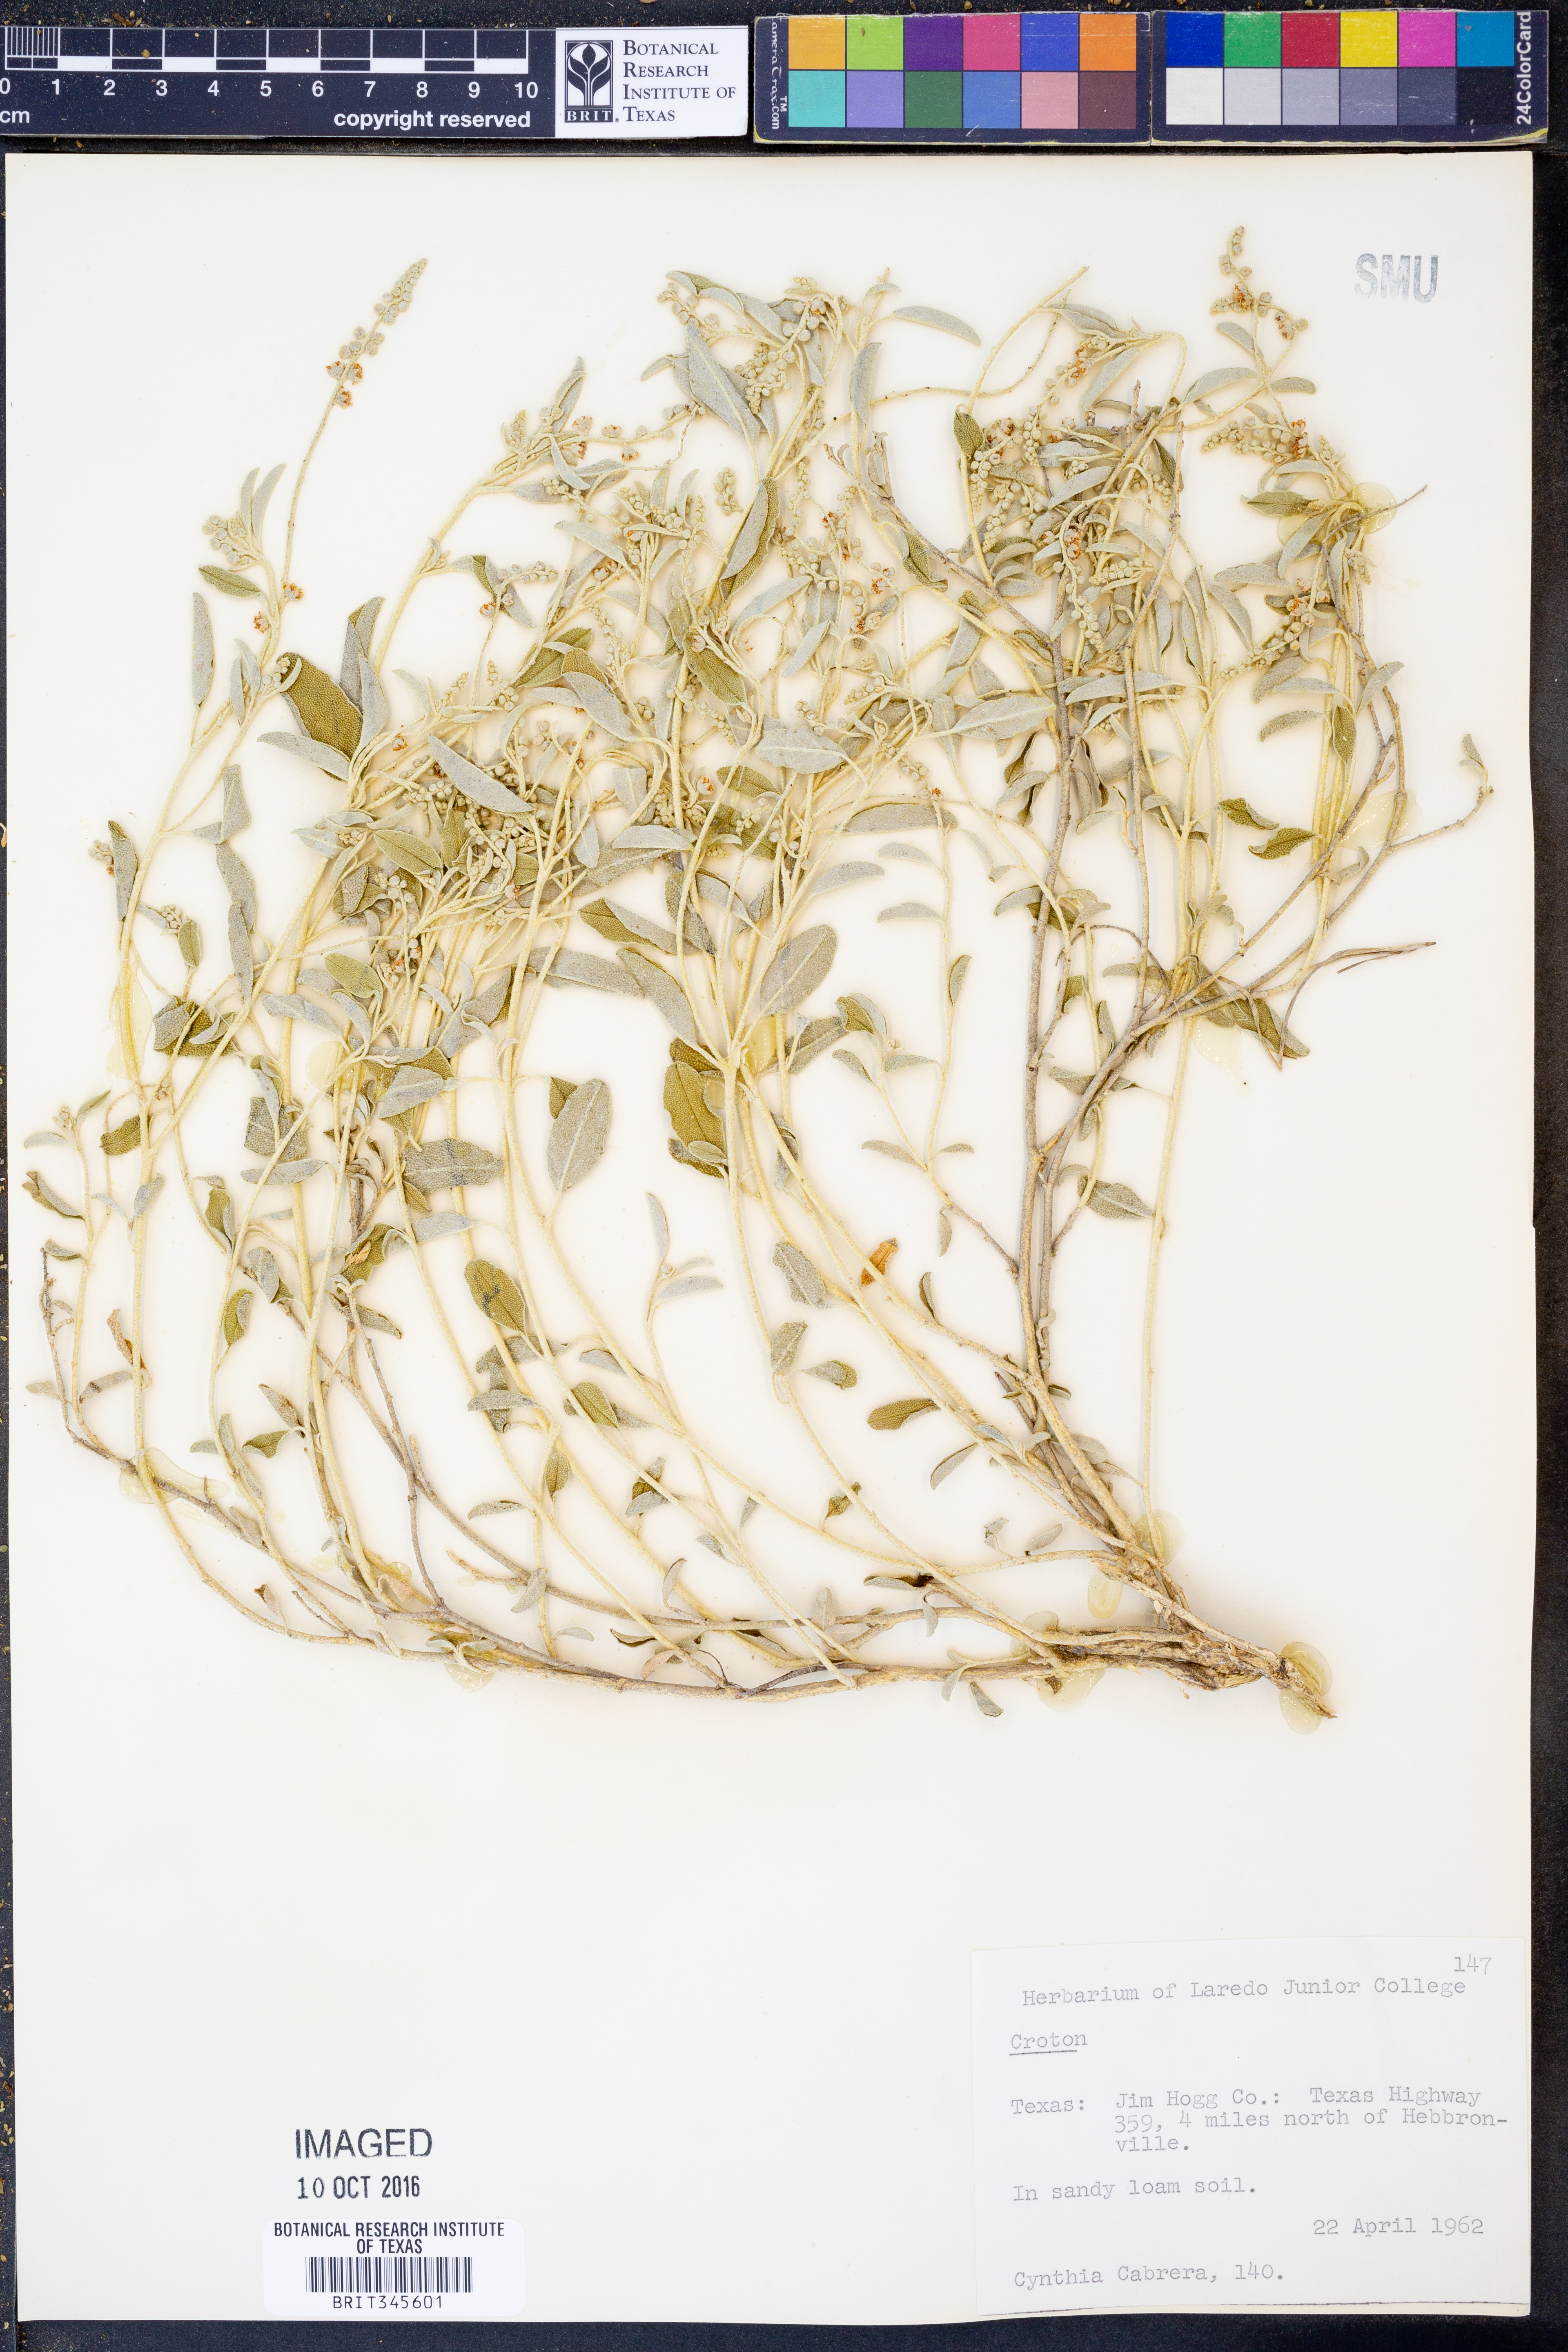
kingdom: Plantae
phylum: Tracheophyta
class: Magnoliopsida
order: Malpighiales
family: Euphorbiaceae
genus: Croton
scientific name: Croton
